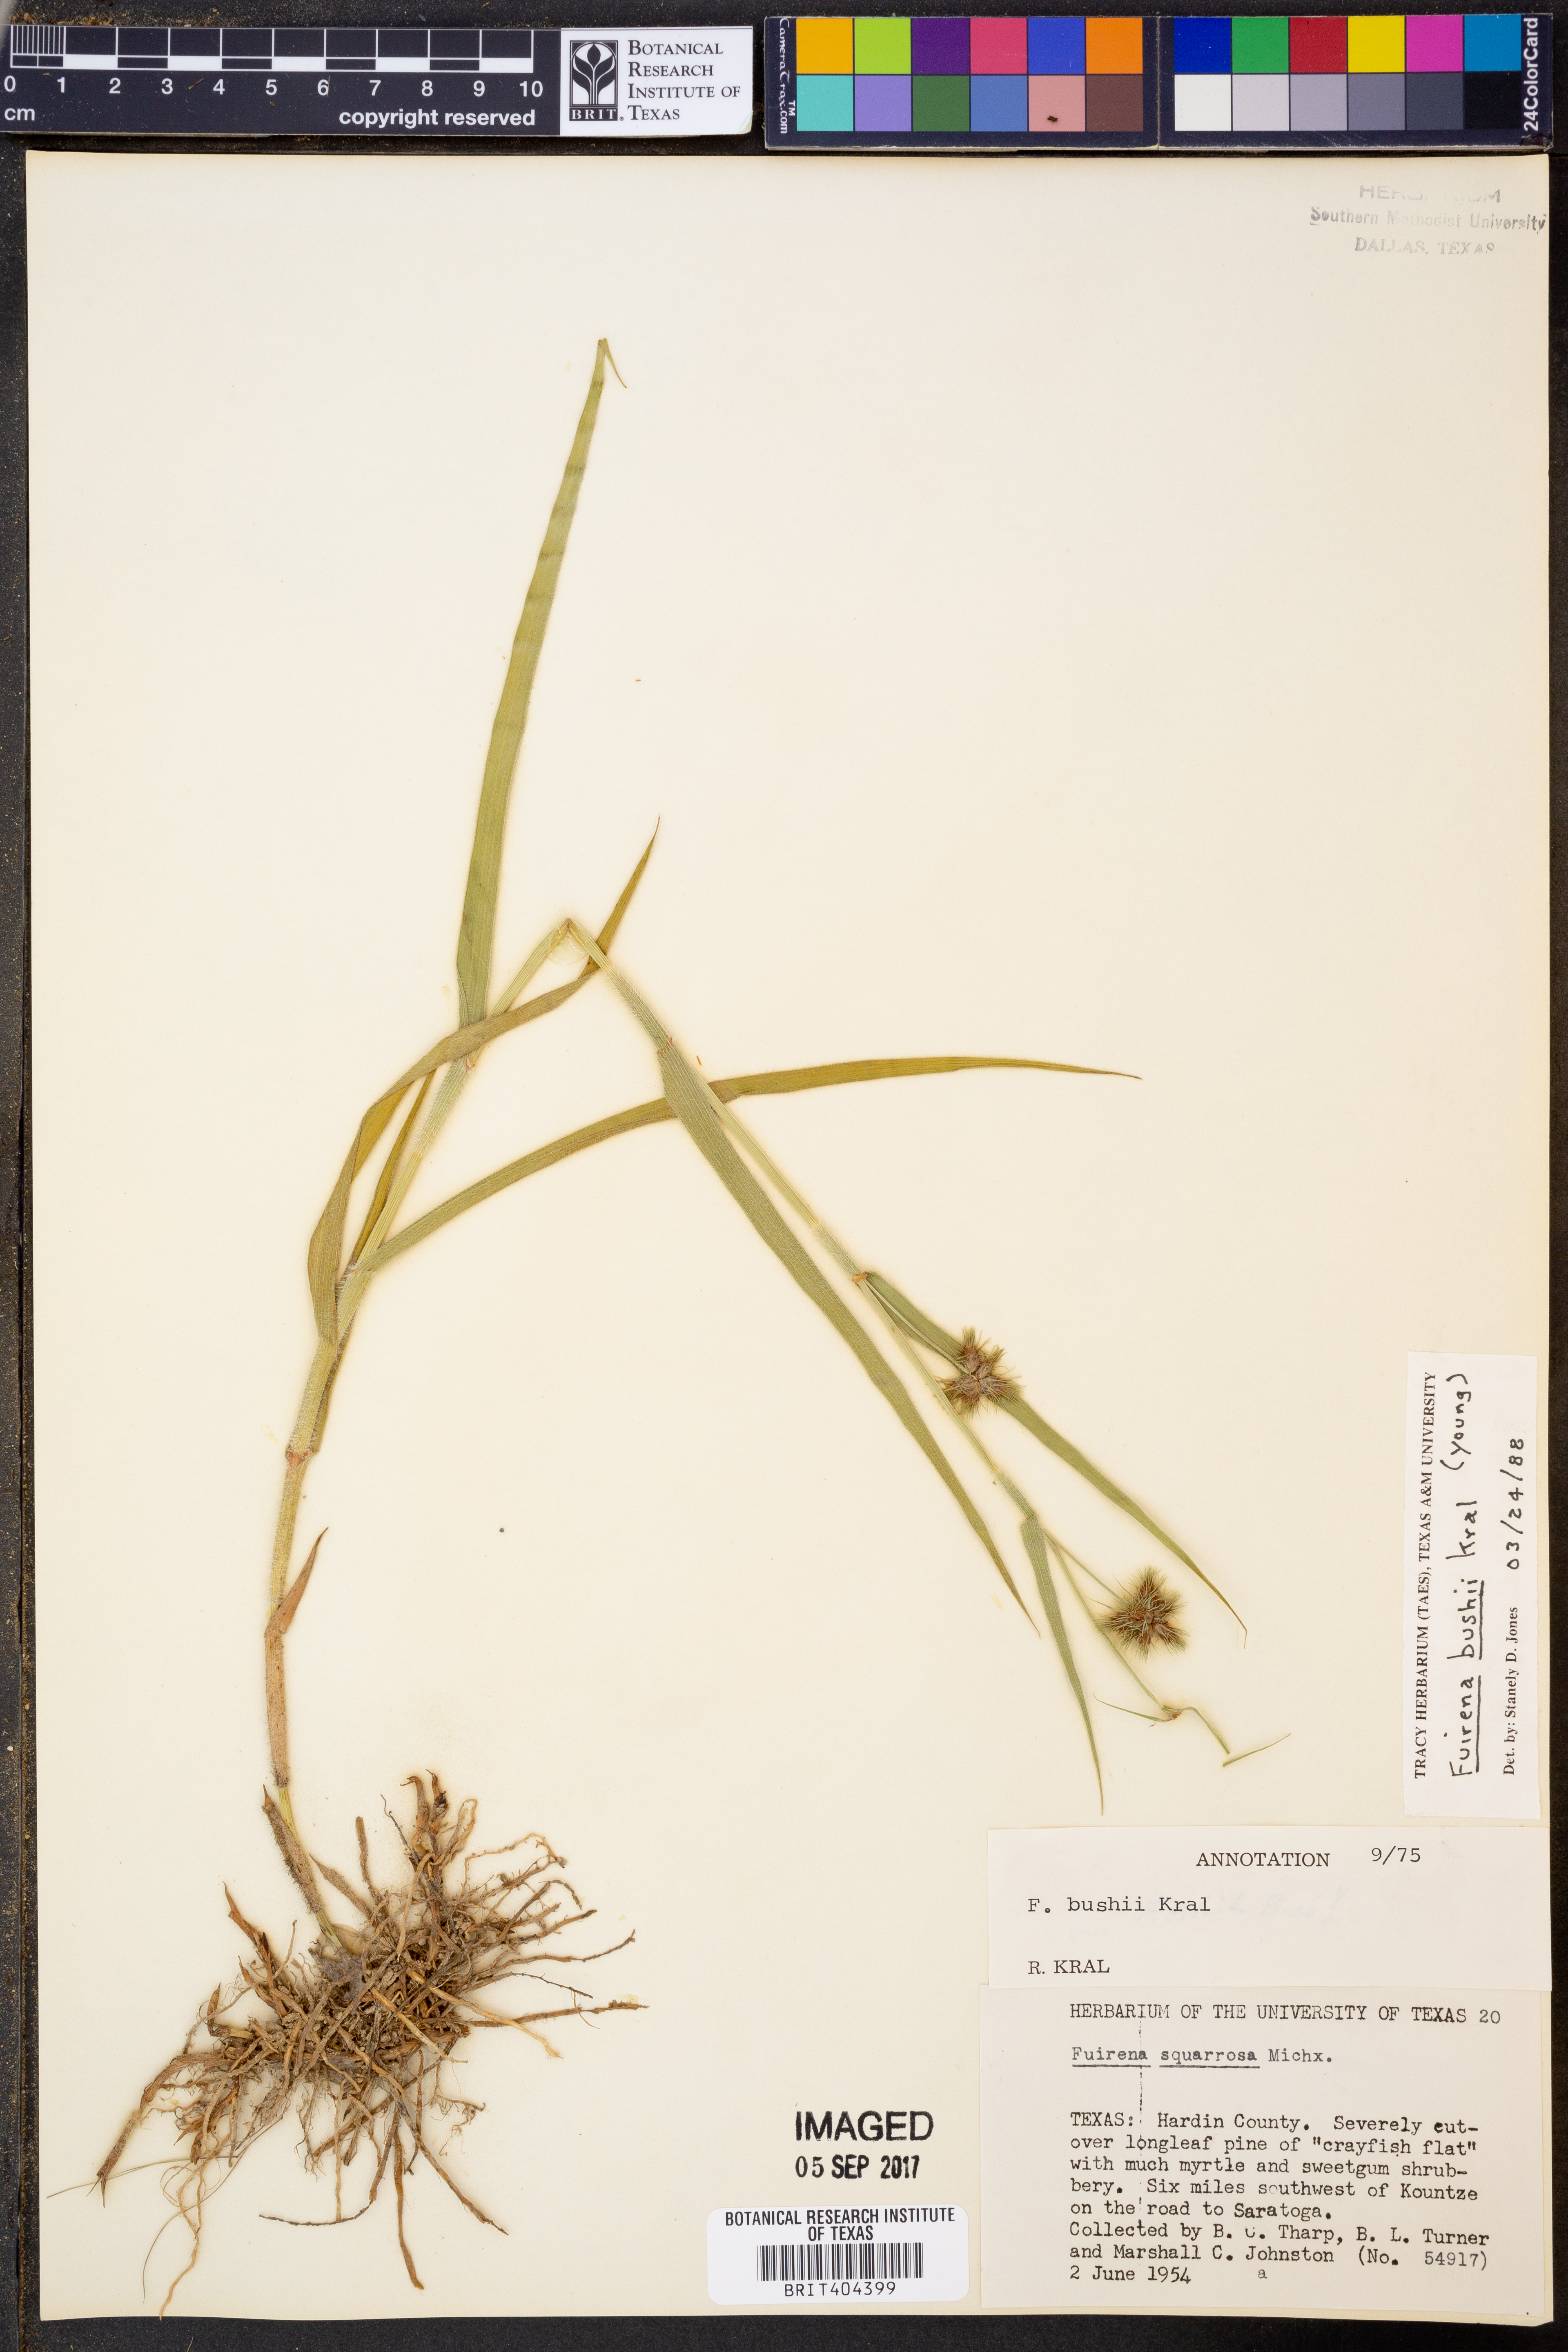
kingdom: Plantae
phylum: Tracheophyta
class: Liliopsida
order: Poales
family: Cyperaceae
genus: Fuirena
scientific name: Fuirena bushii
